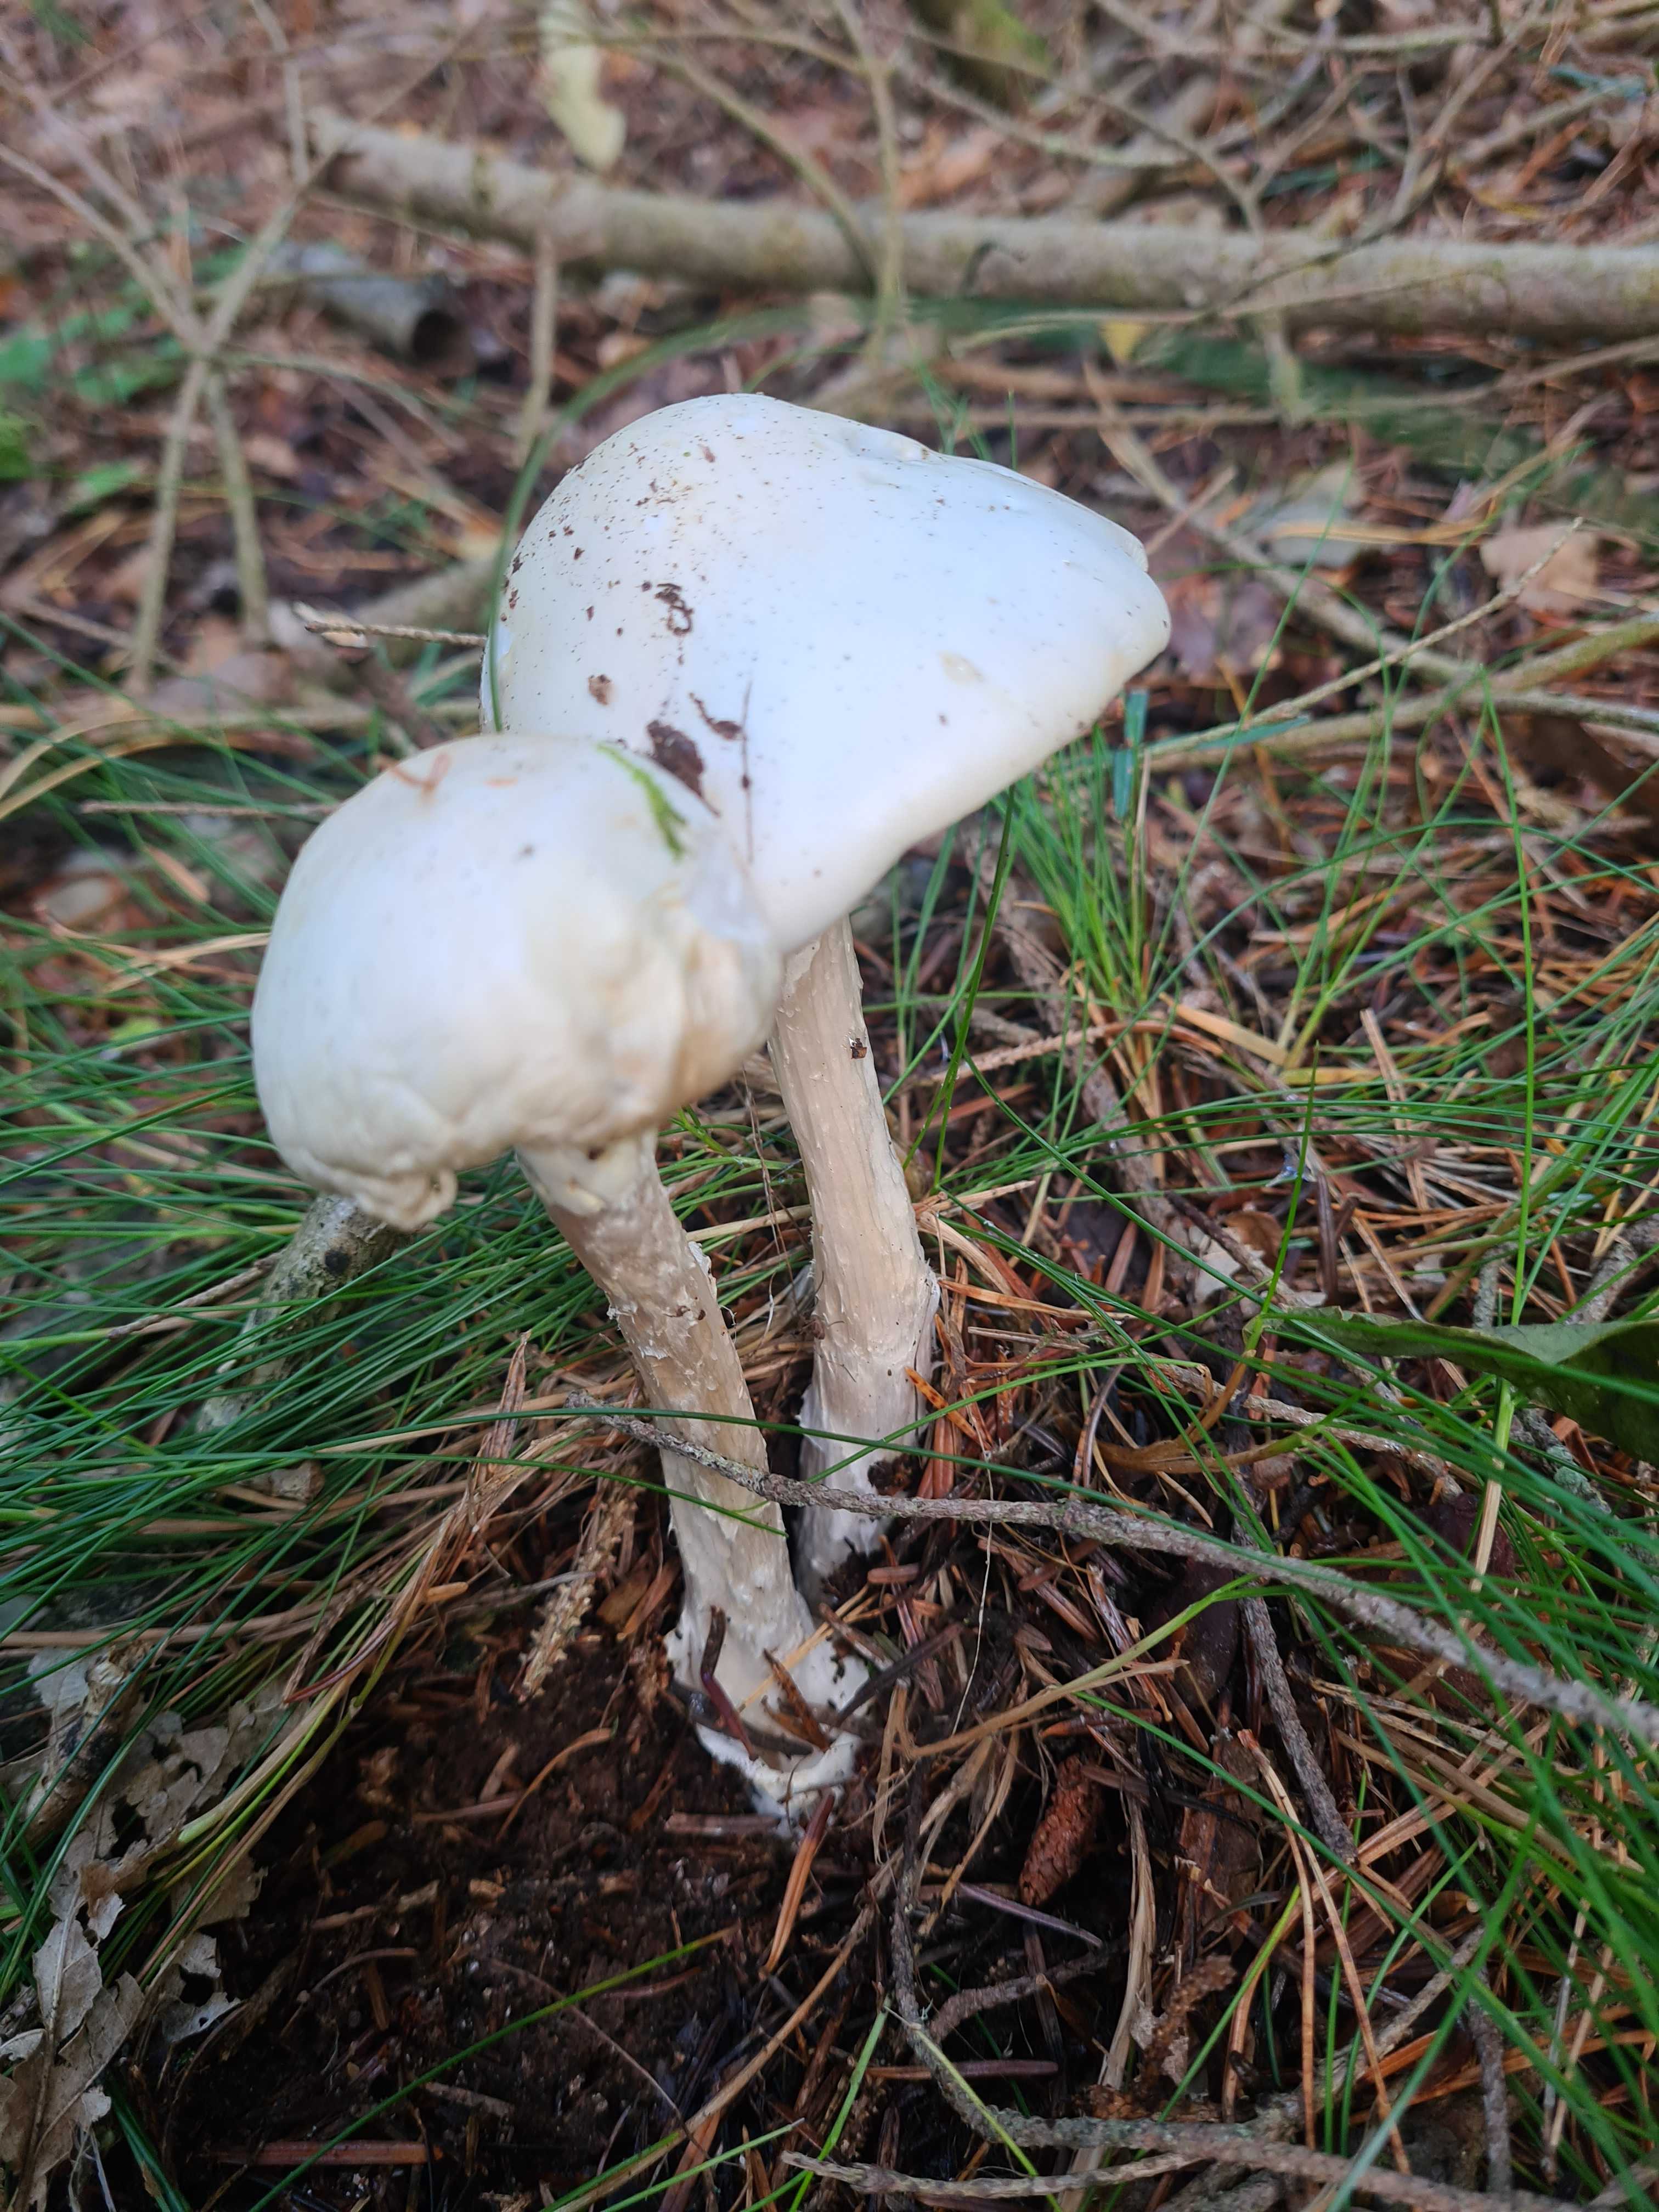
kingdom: Fungi
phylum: Basidiomycota
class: Agaricomycetes
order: Agaricales
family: Amanitaceae
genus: Amanita
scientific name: Amanita virosa
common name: snehvid fluesvamp
